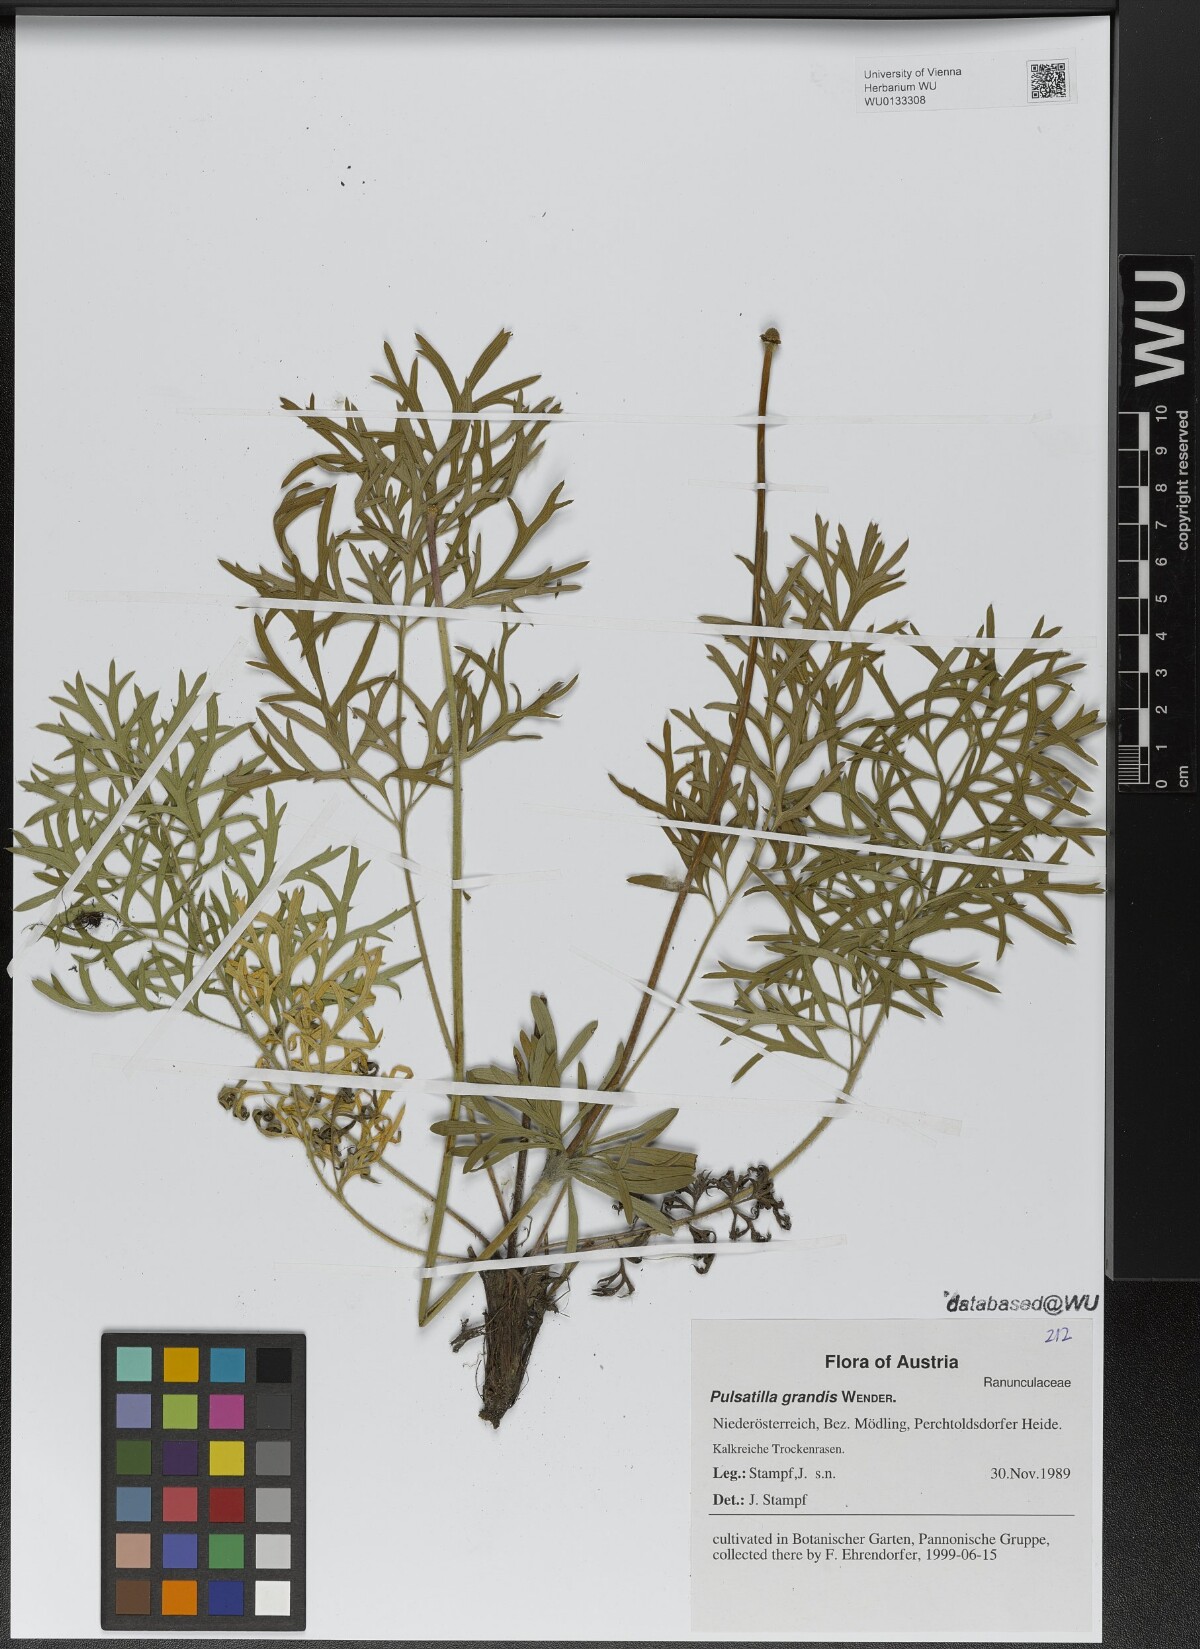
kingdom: Plantae
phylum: Tracheophyta
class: Magnoliopsida
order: Ranunculales
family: Ranunculaceae
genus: Pulsatilla
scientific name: Pulsatilla grandis
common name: Greater pasque flower
